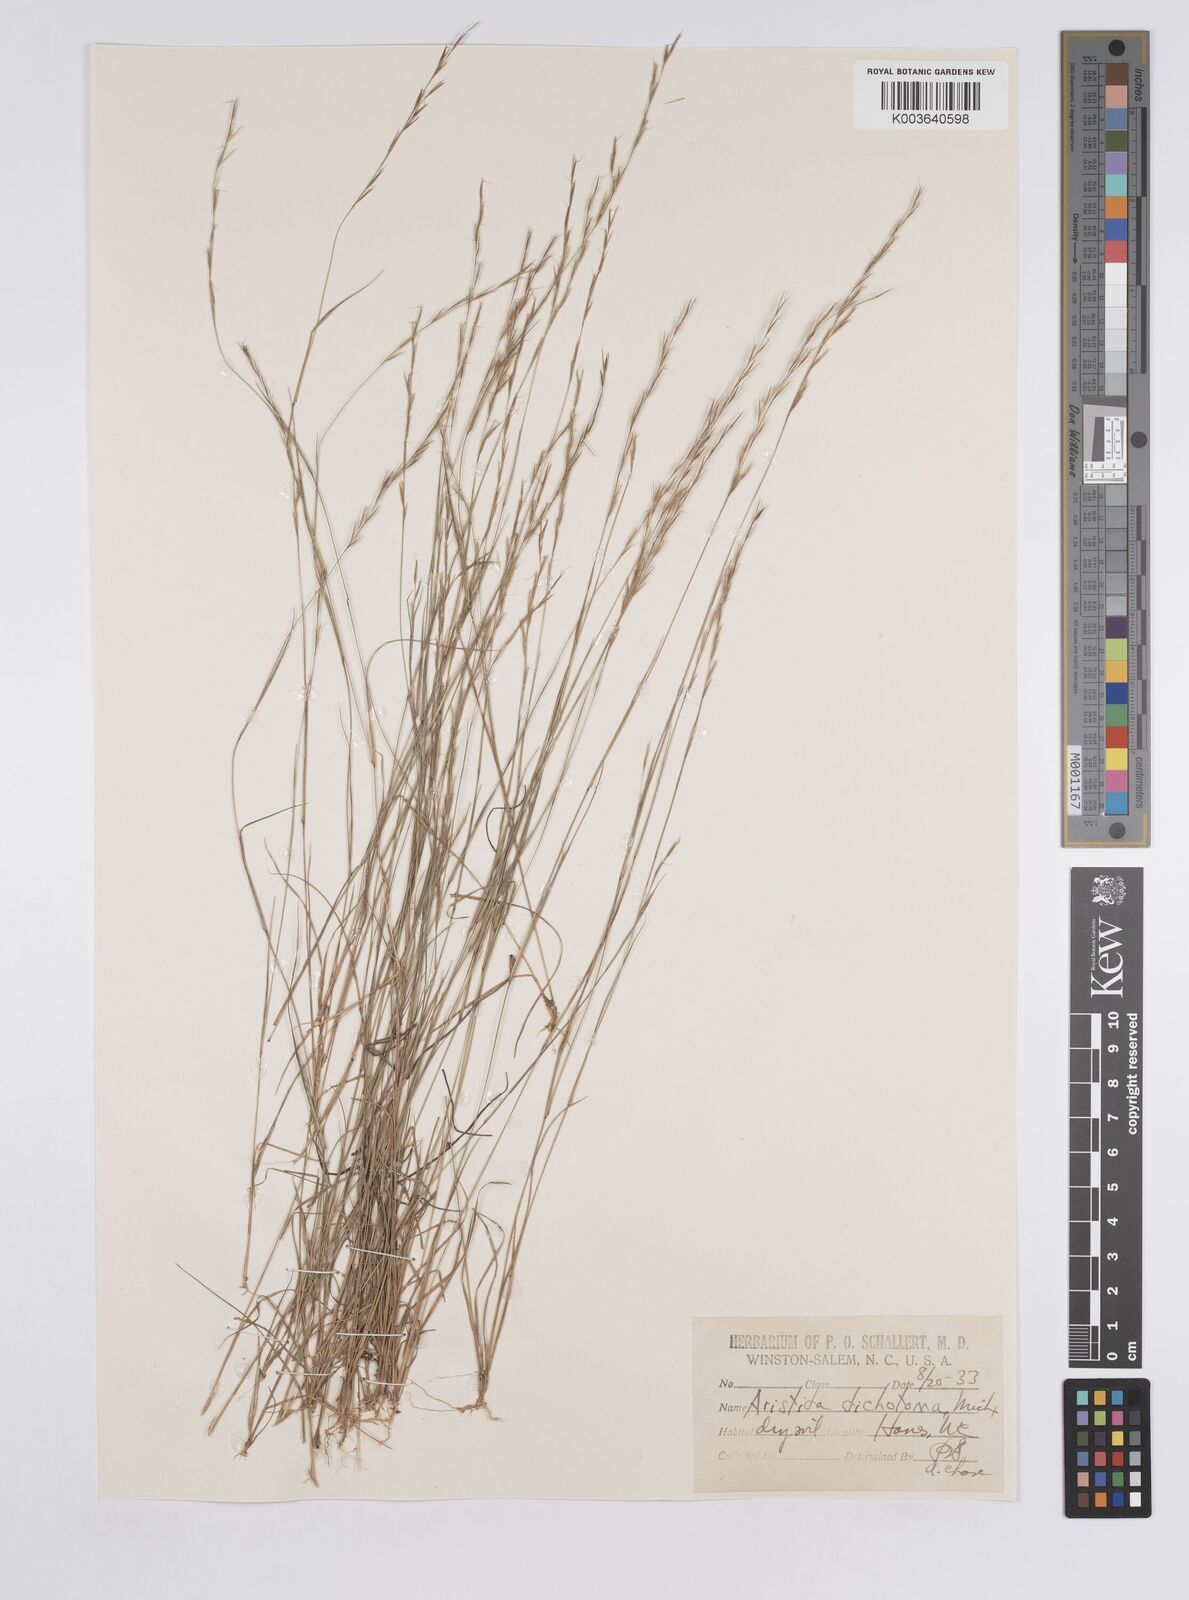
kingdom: Plantae
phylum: Tracheophyta
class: Liliopsida
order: Poales
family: Poaceae
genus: Aristida
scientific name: Aristida dichotoma
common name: Churchmouse three-awn
